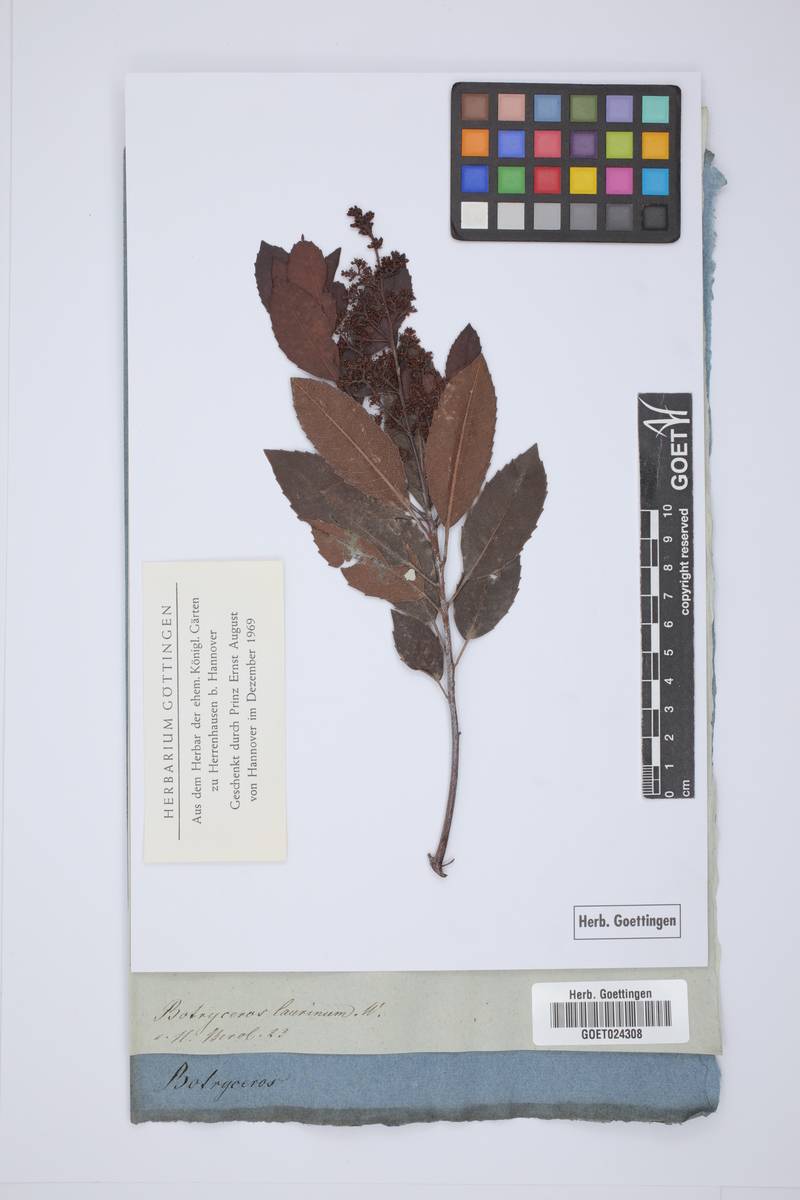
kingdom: Plantae
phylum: Tracheophyta
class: Magnoliopsida
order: Sapindales
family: Anacardiaceae
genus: Laurophyllus
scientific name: Laurophyllus capensis
